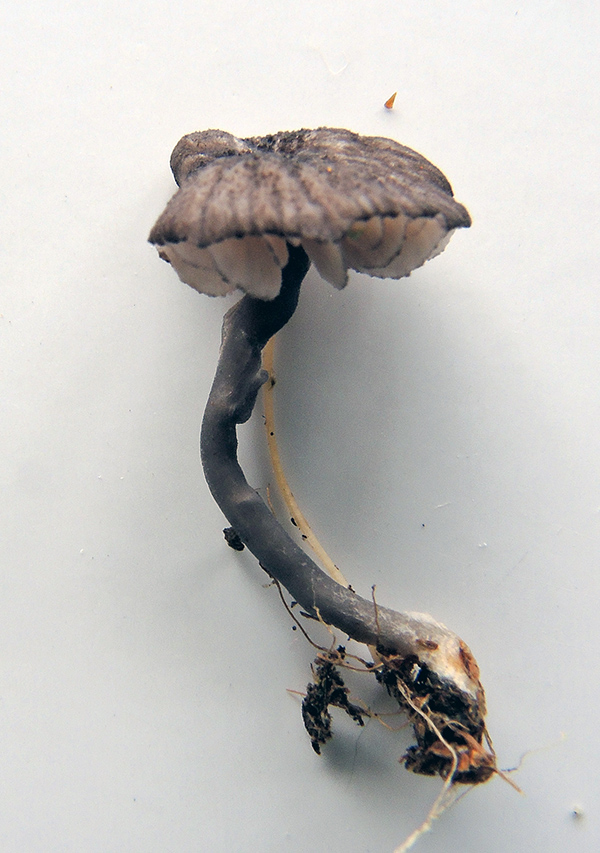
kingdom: Fungi
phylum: Basidiomycota
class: Agaricomycetes
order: Agaricales
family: Entolomataceae
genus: Entoloma
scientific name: Entoloma callipygmaeum
